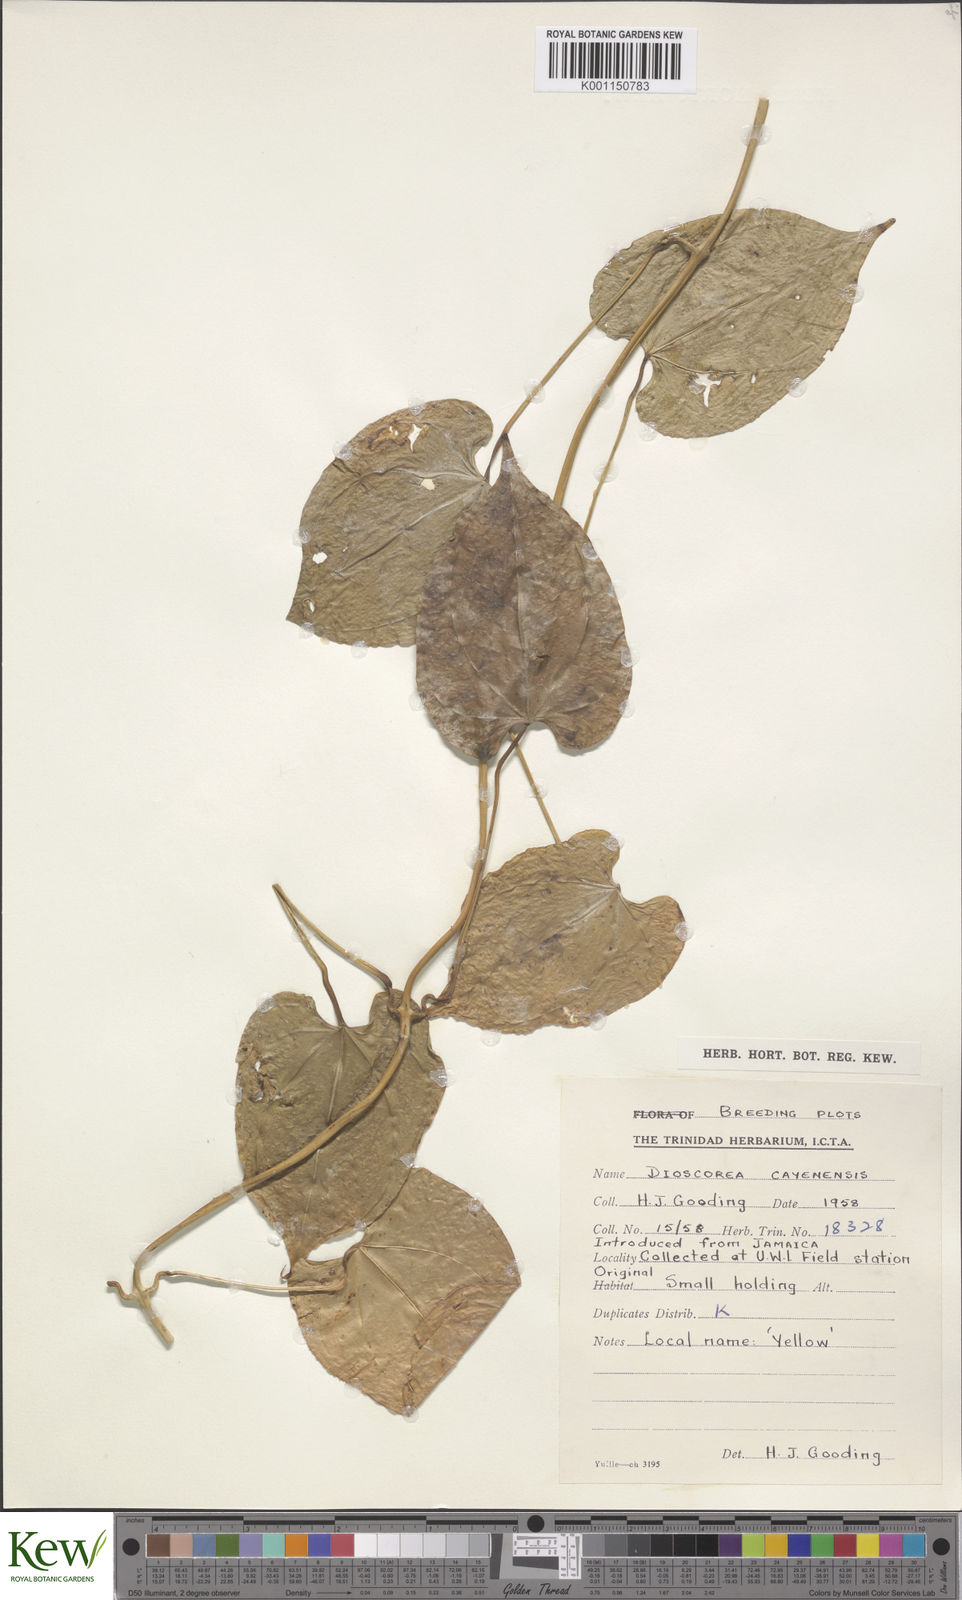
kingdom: Plantae
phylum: Tracheophyta
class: Liliopsida
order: Dioscoreales
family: Dioscoreaceae
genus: Dioscorea
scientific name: Dioscorea cayenensis
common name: Attoto yam
